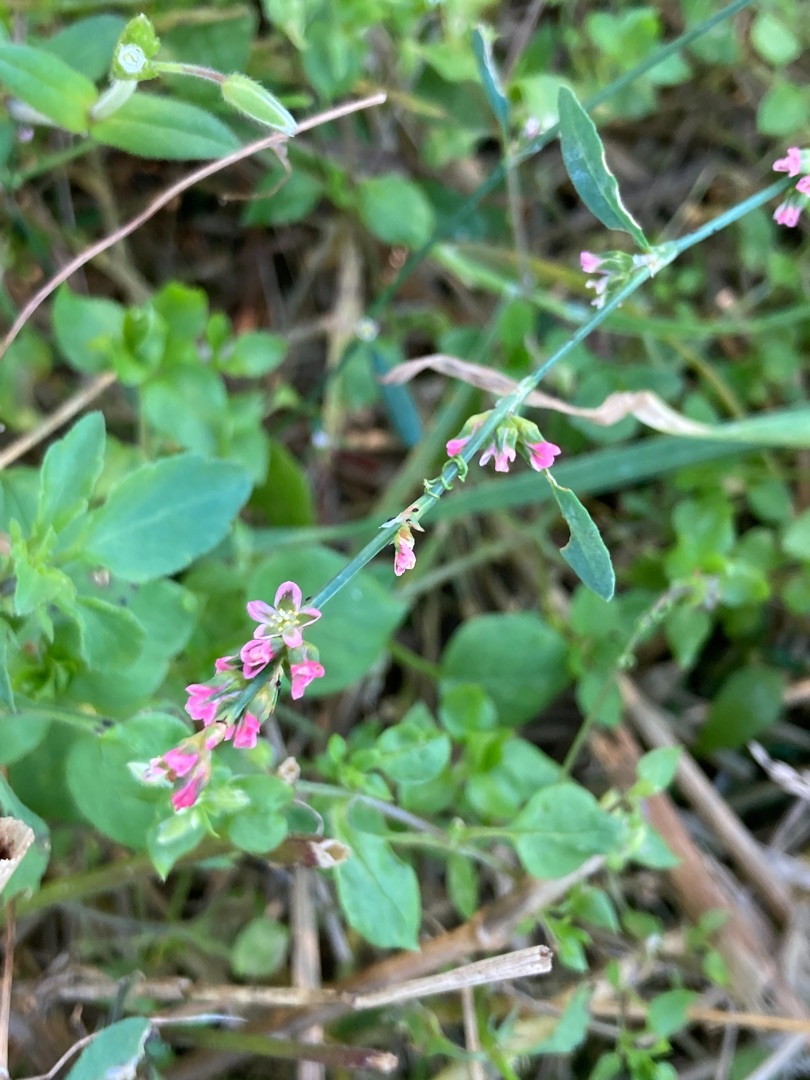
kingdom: Plantae
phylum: Tracheophyta
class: Magnoliopsida
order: Caryophyllales
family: Polygonaceae
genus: Polygonum
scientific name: Polygonum aviculare
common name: Vej-pileurt
